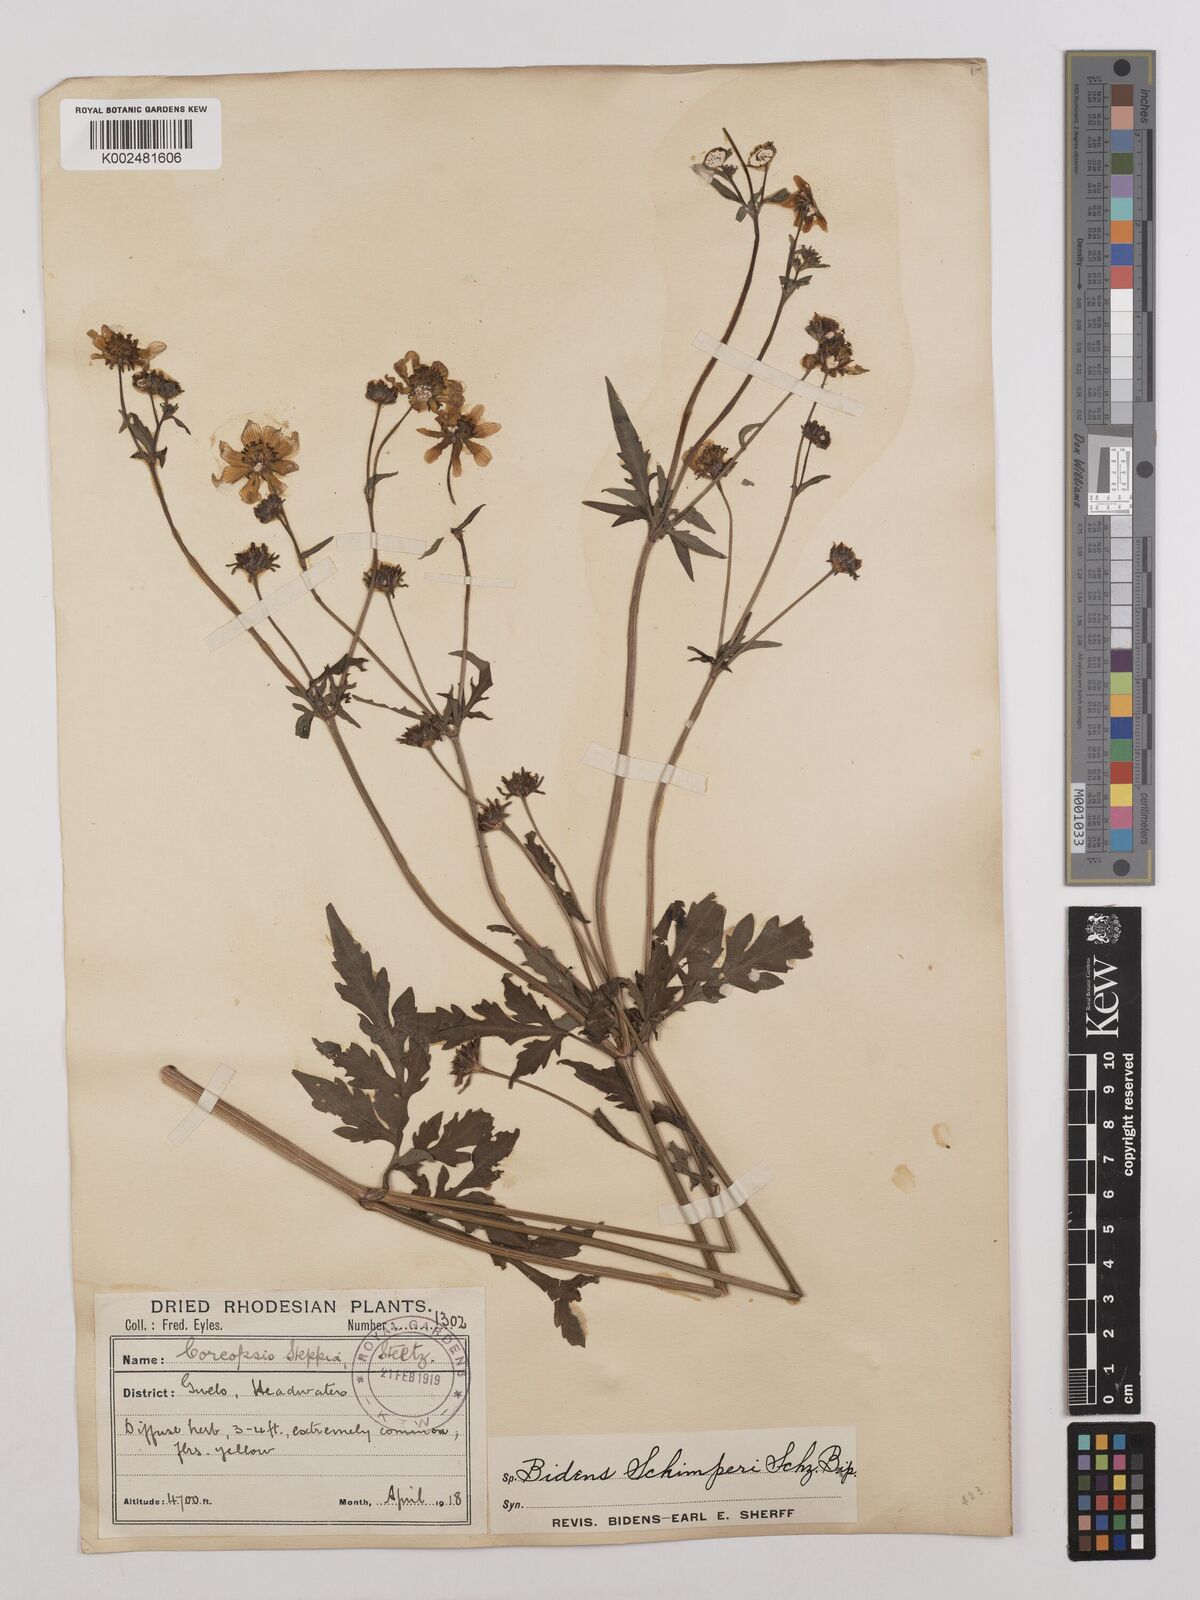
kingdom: Plantae
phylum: Tracheophyta
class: Magnoliopsida
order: Asterales
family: Asteraceae
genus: Bidens
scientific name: Bidens schimperi
